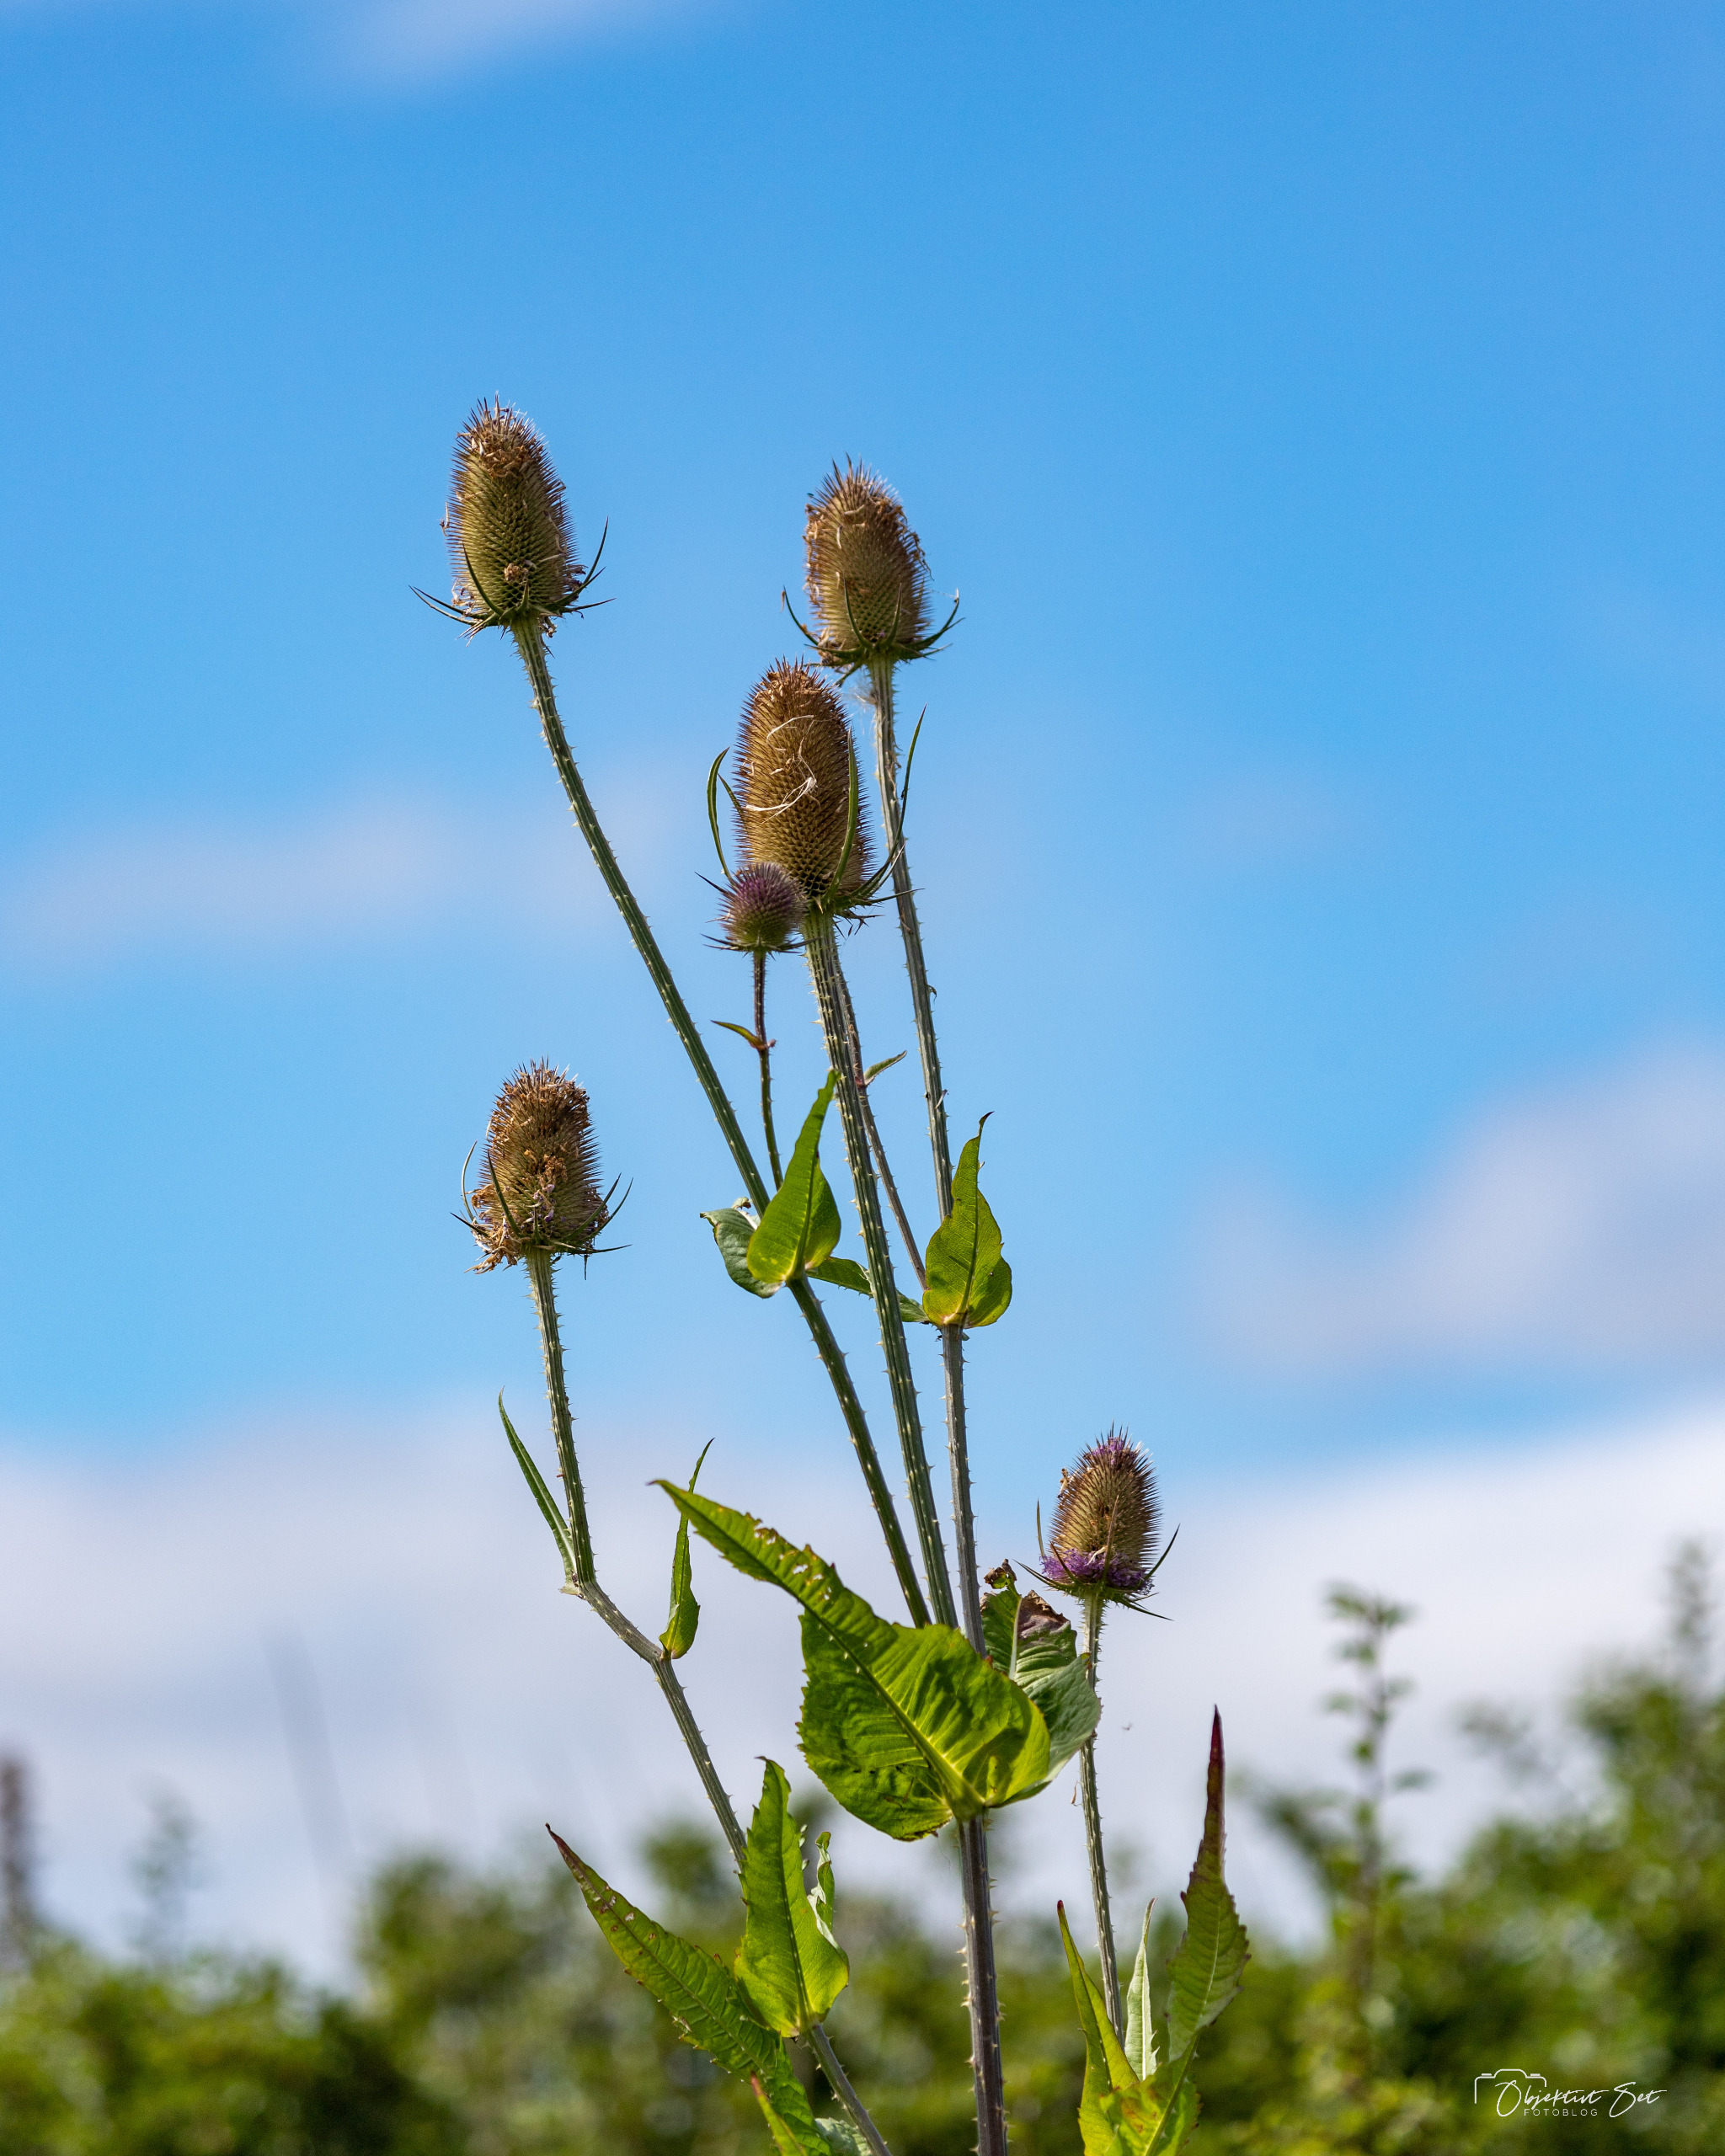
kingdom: Plantae
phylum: Tracheophyta
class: Magnoliopsida
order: Dipsacales
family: Caprifoliaceae
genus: Dipsacus
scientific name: Dipsacus fullonum
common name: Gærde-kartebolle
